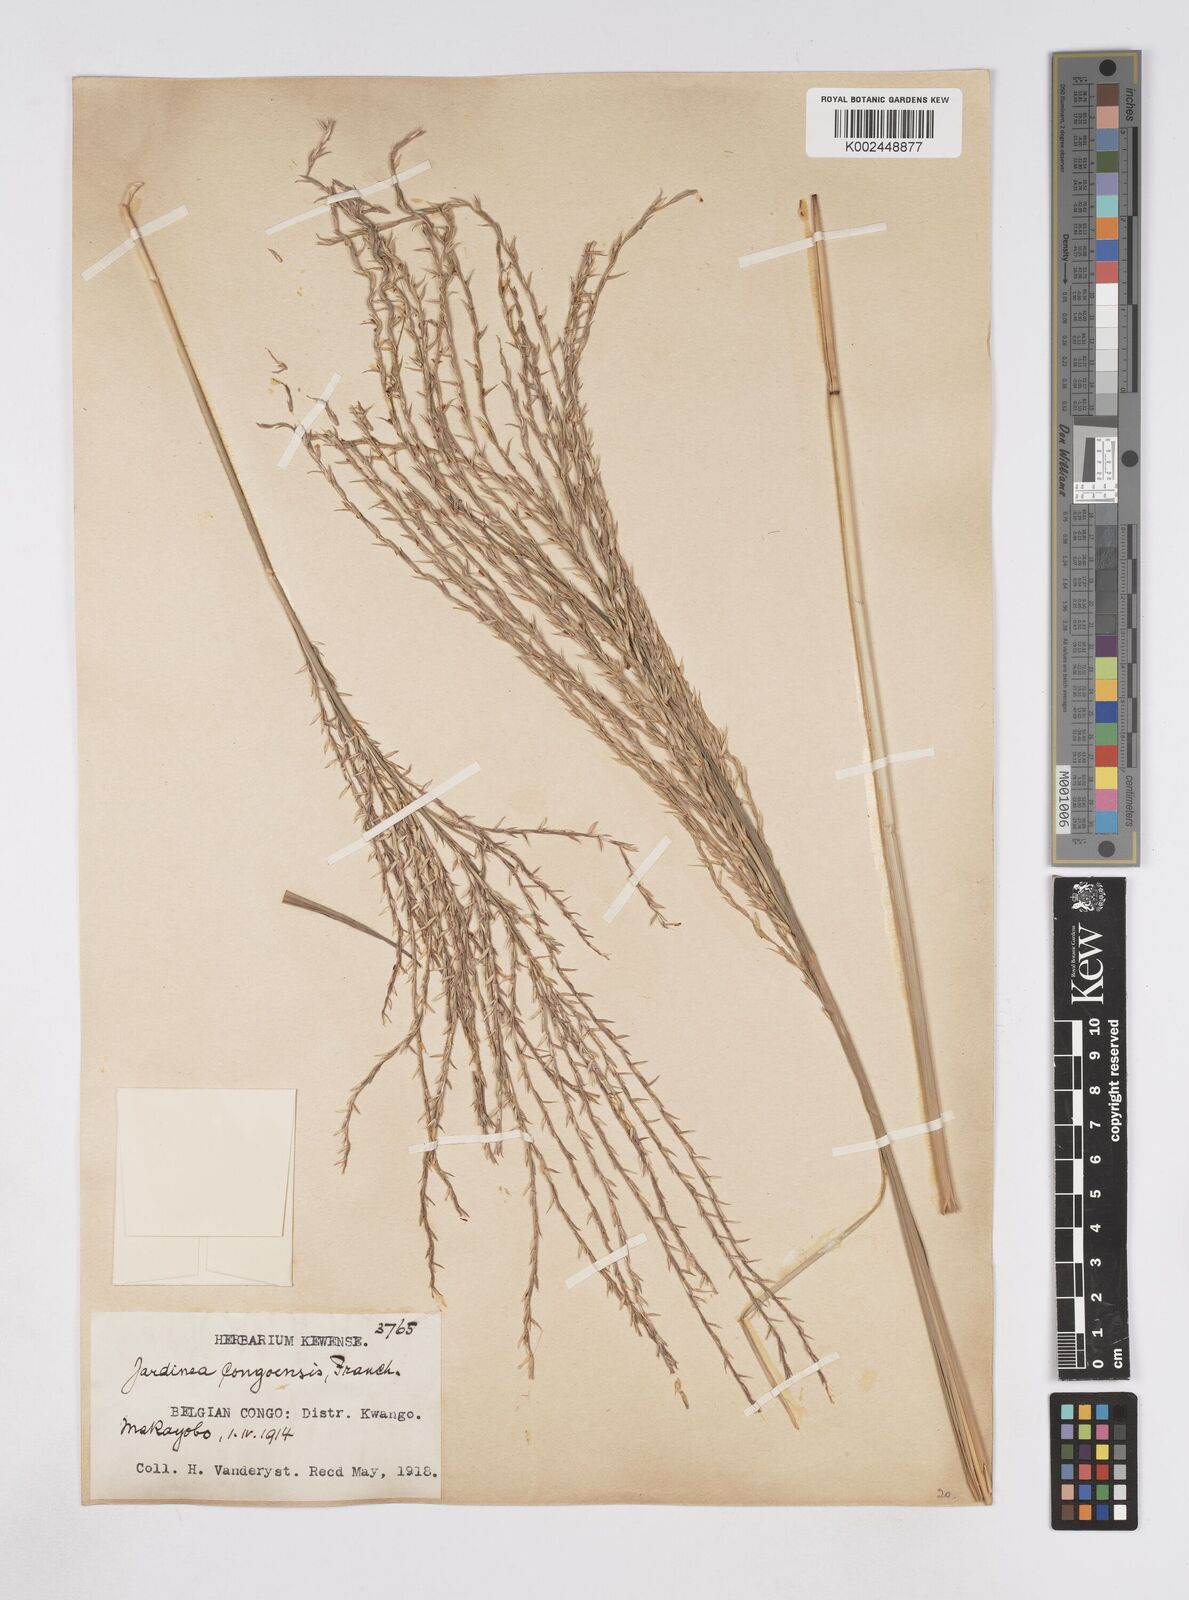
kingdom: Plantae
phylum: Tracheophyta
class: Liliopsida
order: Poales
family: Poaceae
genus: Phacelurus
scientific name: Phacelurus gabonensis
